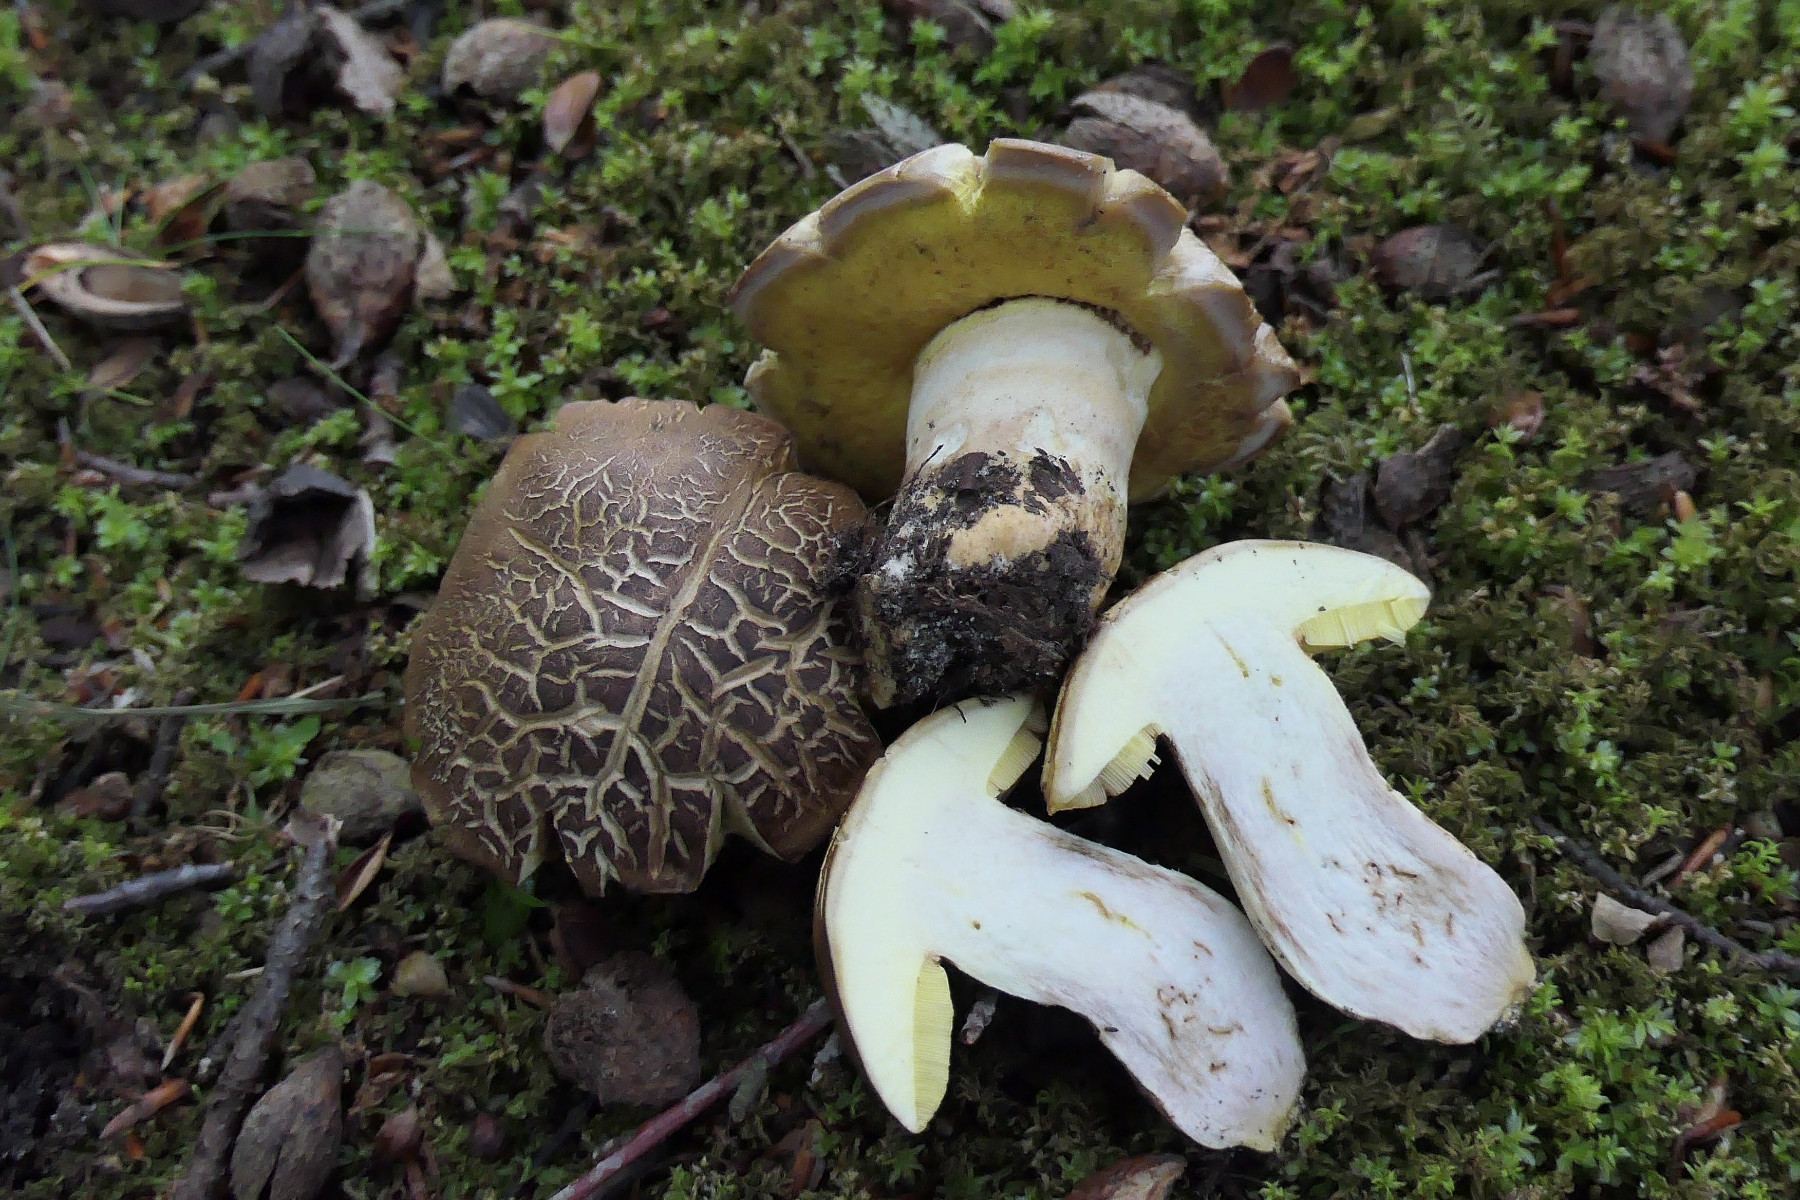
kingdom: Fungi
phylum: Basidiomycota
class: Agaricomycetes
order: Boletales
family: Boletaceae
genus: Butyriboletus
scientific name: Butyriboletus appendiculatus
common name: tenstokket rørhat
